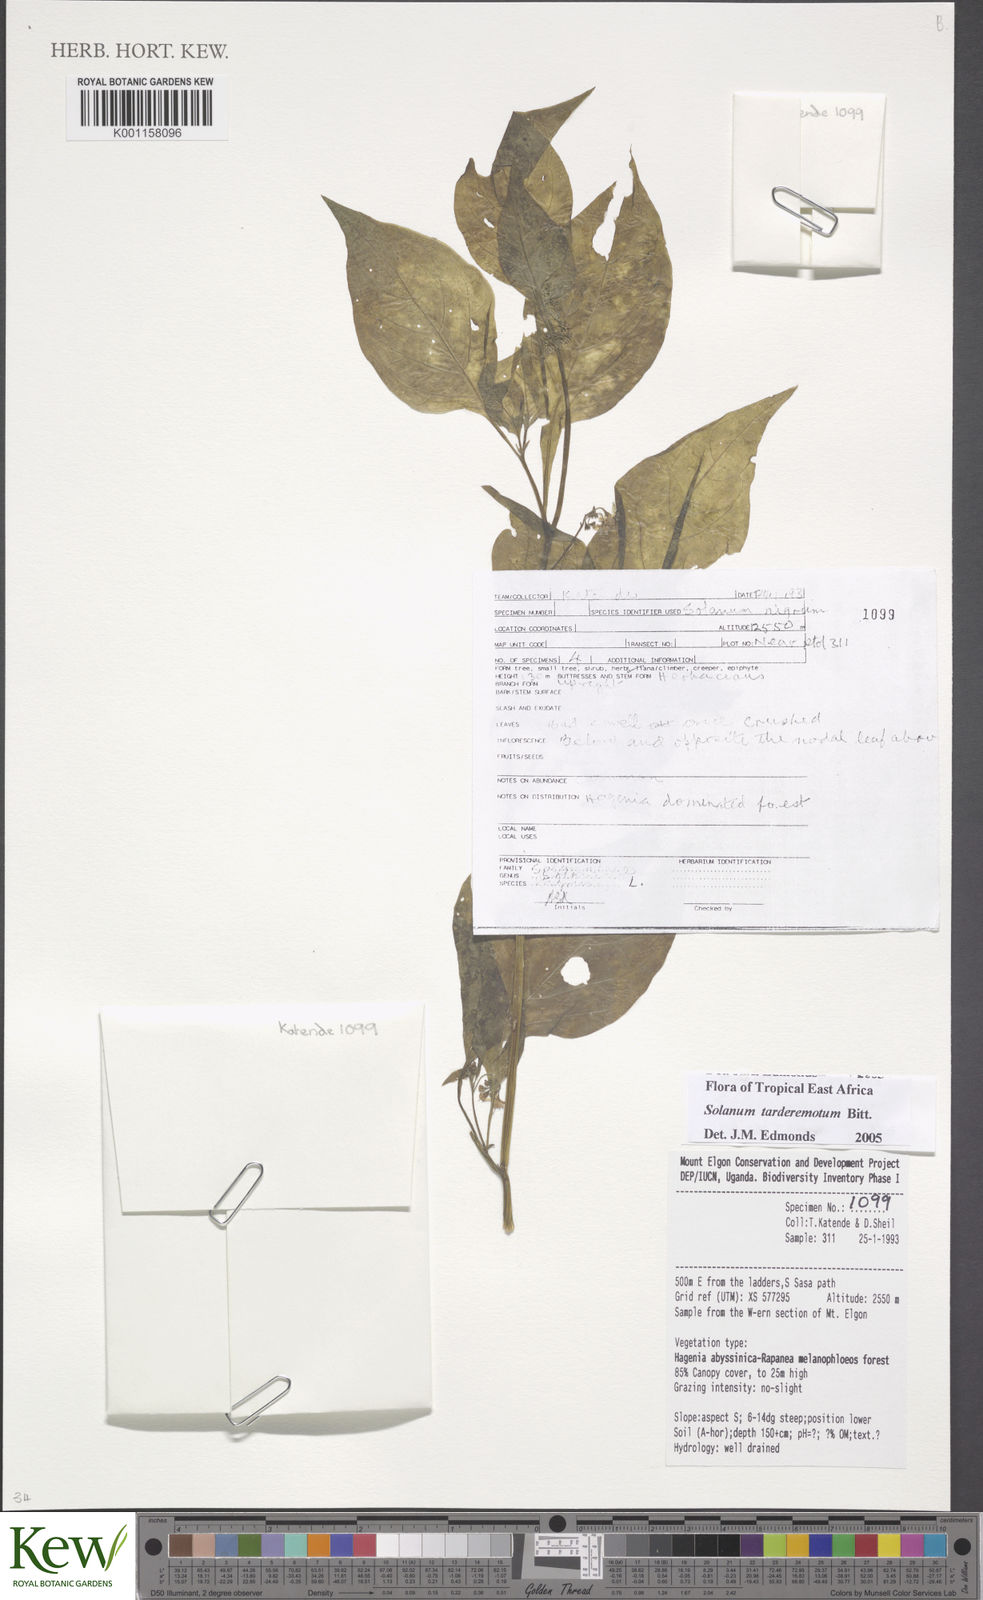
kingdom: Plantae
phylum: Tracheophyta
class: Magnoliopsida
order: Solanales
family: Solanaceae
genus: Solanum
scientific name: Solanum tarderemotum
